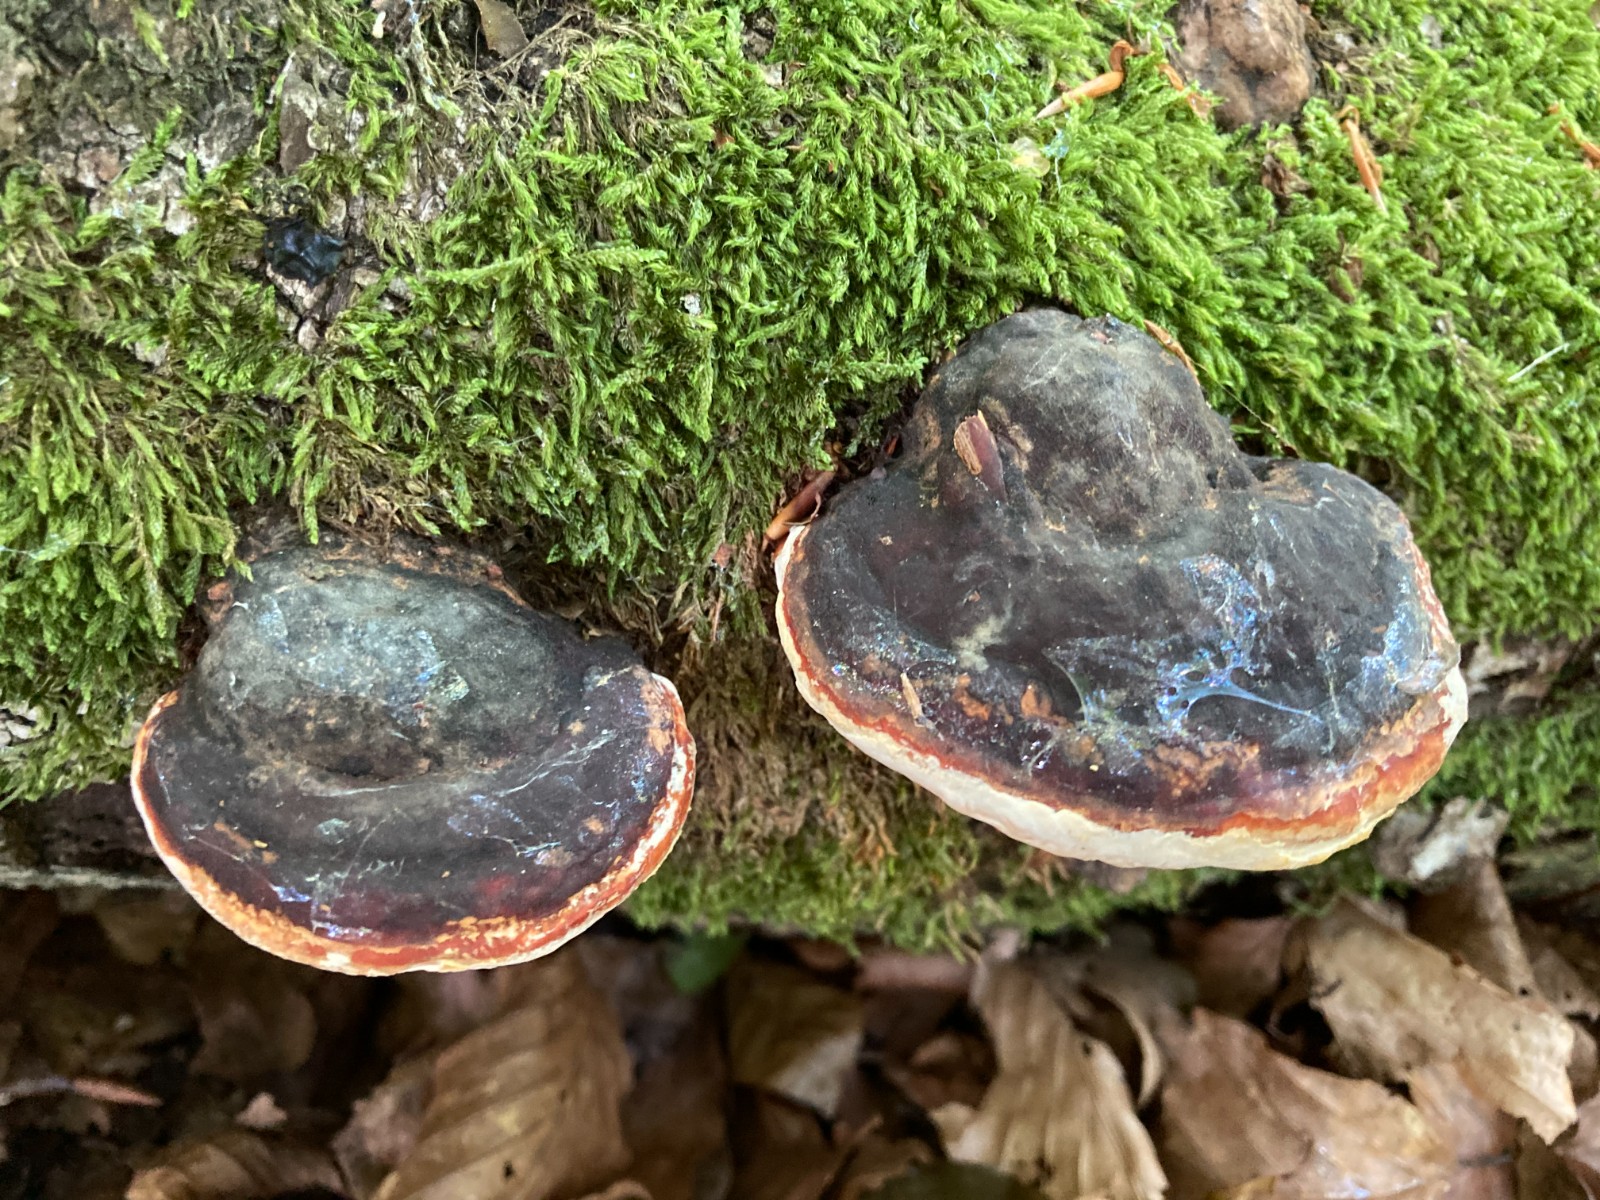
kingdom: Fungi
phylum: Basidiomycota
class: Agaricomycetes
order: Polyporales
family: Fomitopsidaceae
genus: Fomitopsis
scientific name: Fomitopsis pinicola
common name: randbæltet hovporesvamp
